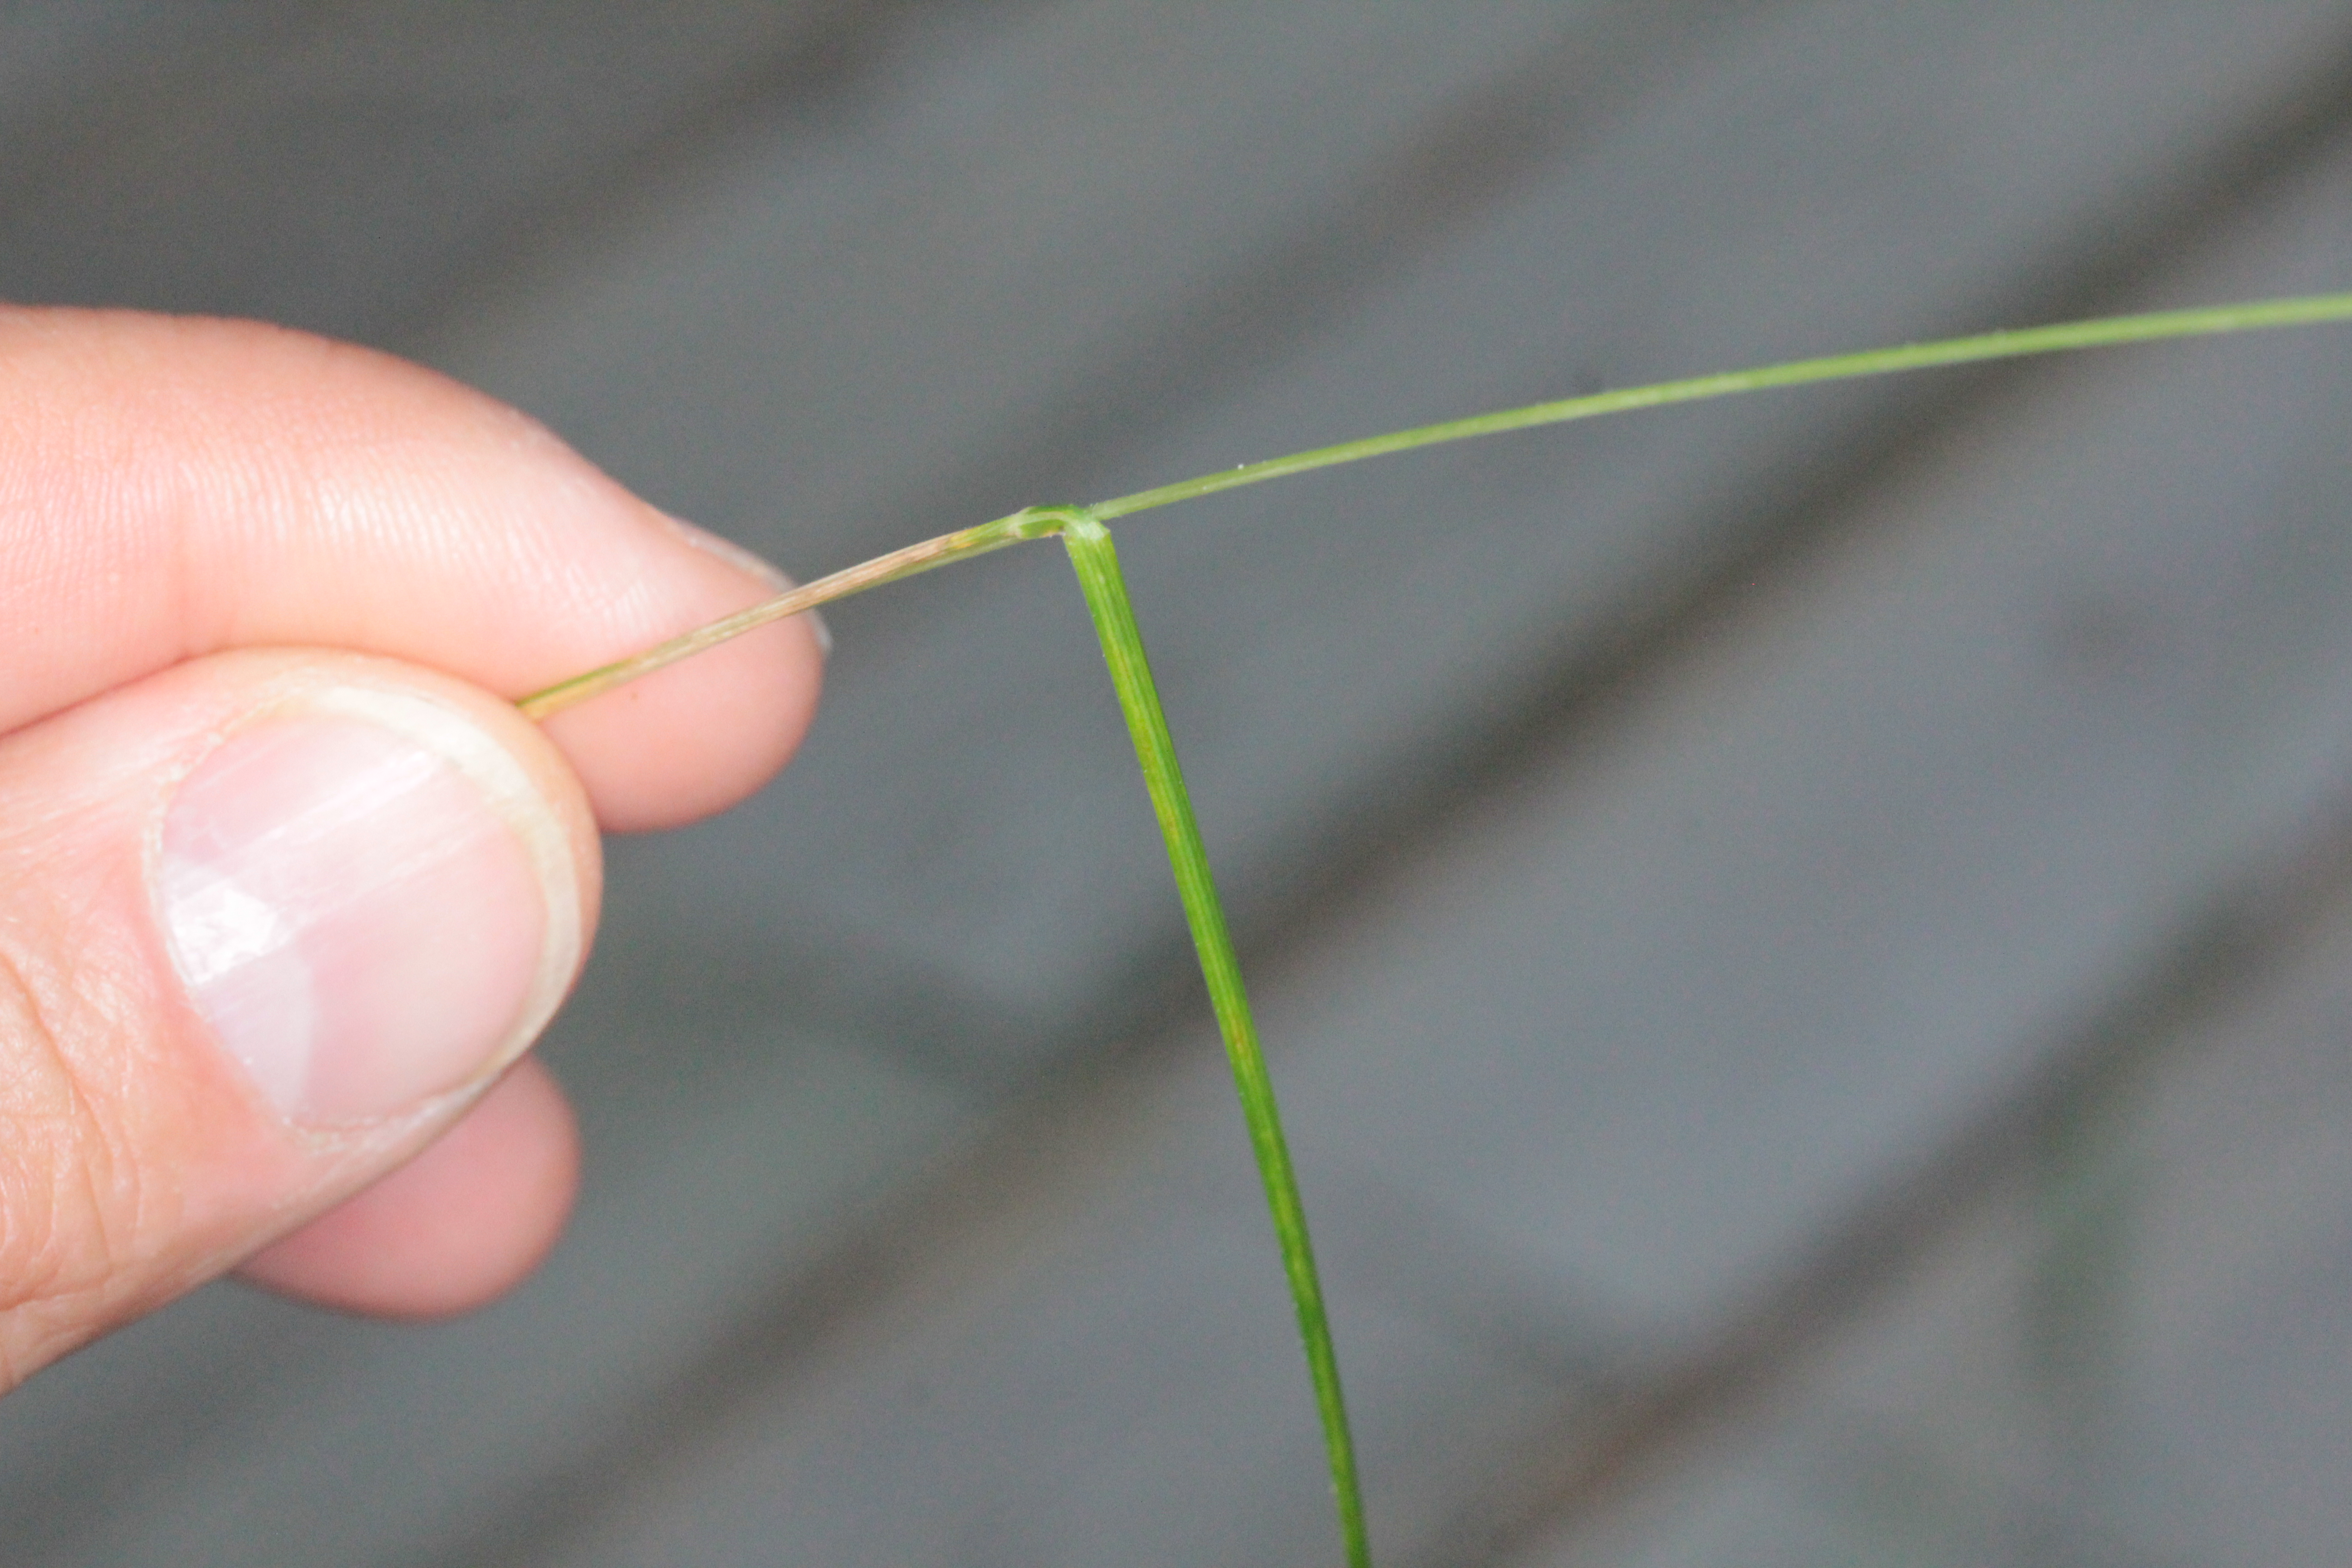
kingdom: Plantae
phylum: Tracheophyta
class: Liliopsida
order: Poales
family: Poaceae
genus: Brachypodium
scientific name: Brachypodium pinnatum
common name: Tor grass
